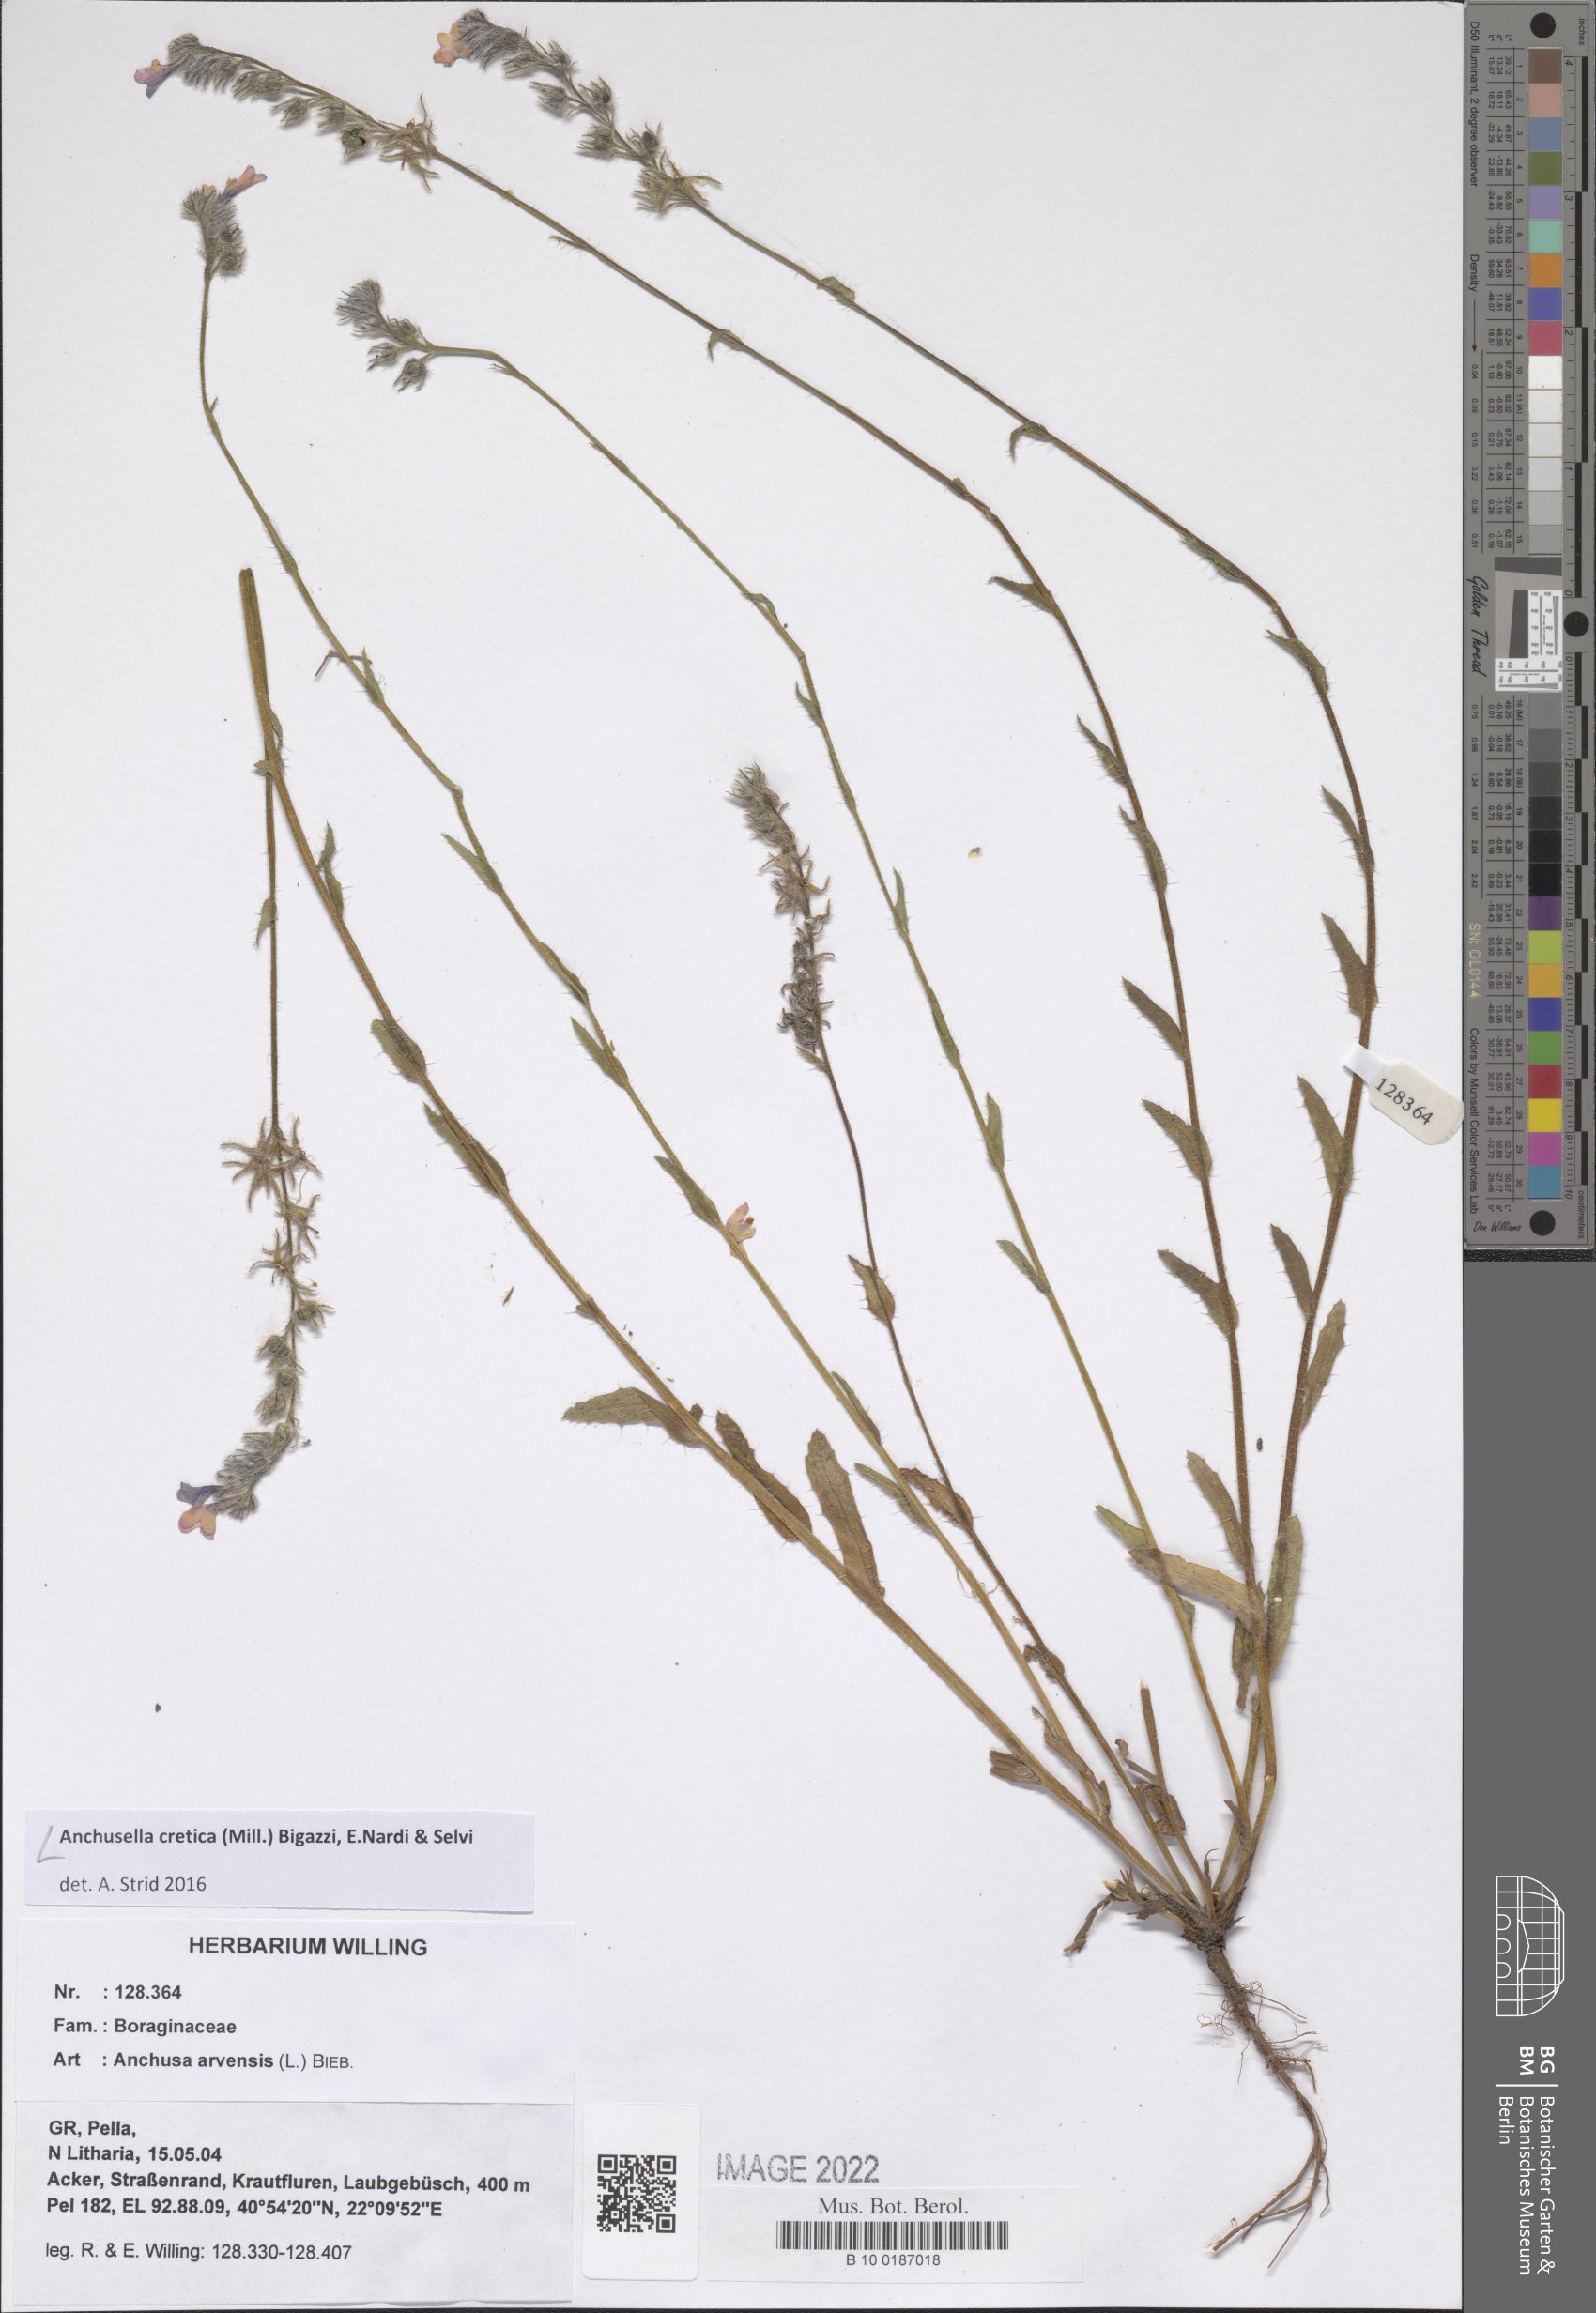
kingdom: Plantae
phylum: Tracheophyta
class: Magnoliopsida
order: Boraginales
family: Boraginaceae
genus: Anchusella
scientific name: Anchusella cretica
